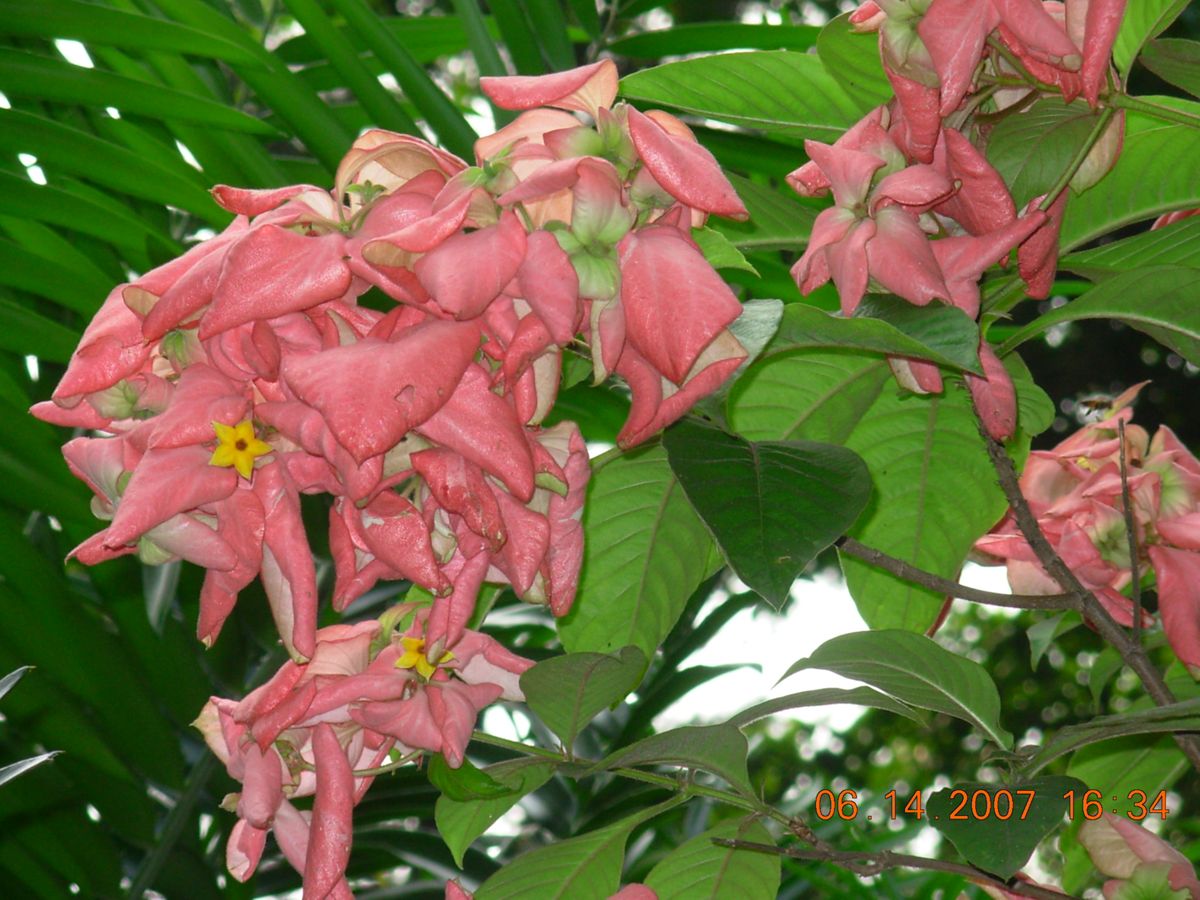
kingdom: Plantae
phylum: Tracheophyta
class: Magnoliopsida
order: Gentianales
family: Rubiaceae
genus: Mussaenda
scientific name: Mussaenda frondosa
